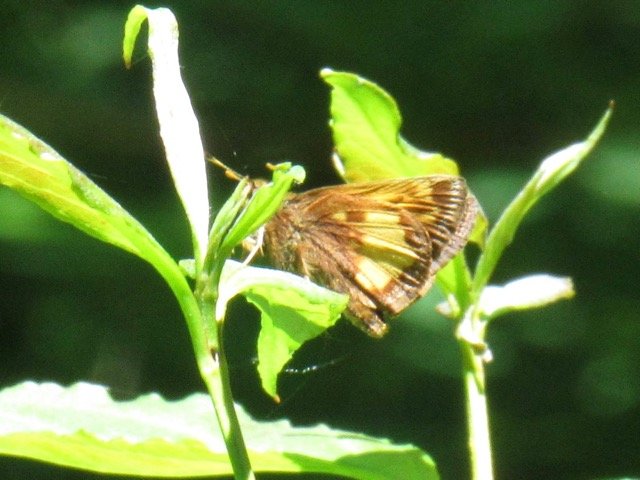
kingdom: Animalia
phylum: Arthropoda
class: Insecta
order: Lepidoptera
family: Hesperiidae
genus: Lon
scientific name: Lon hobomok
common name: Hobomok Skipper
